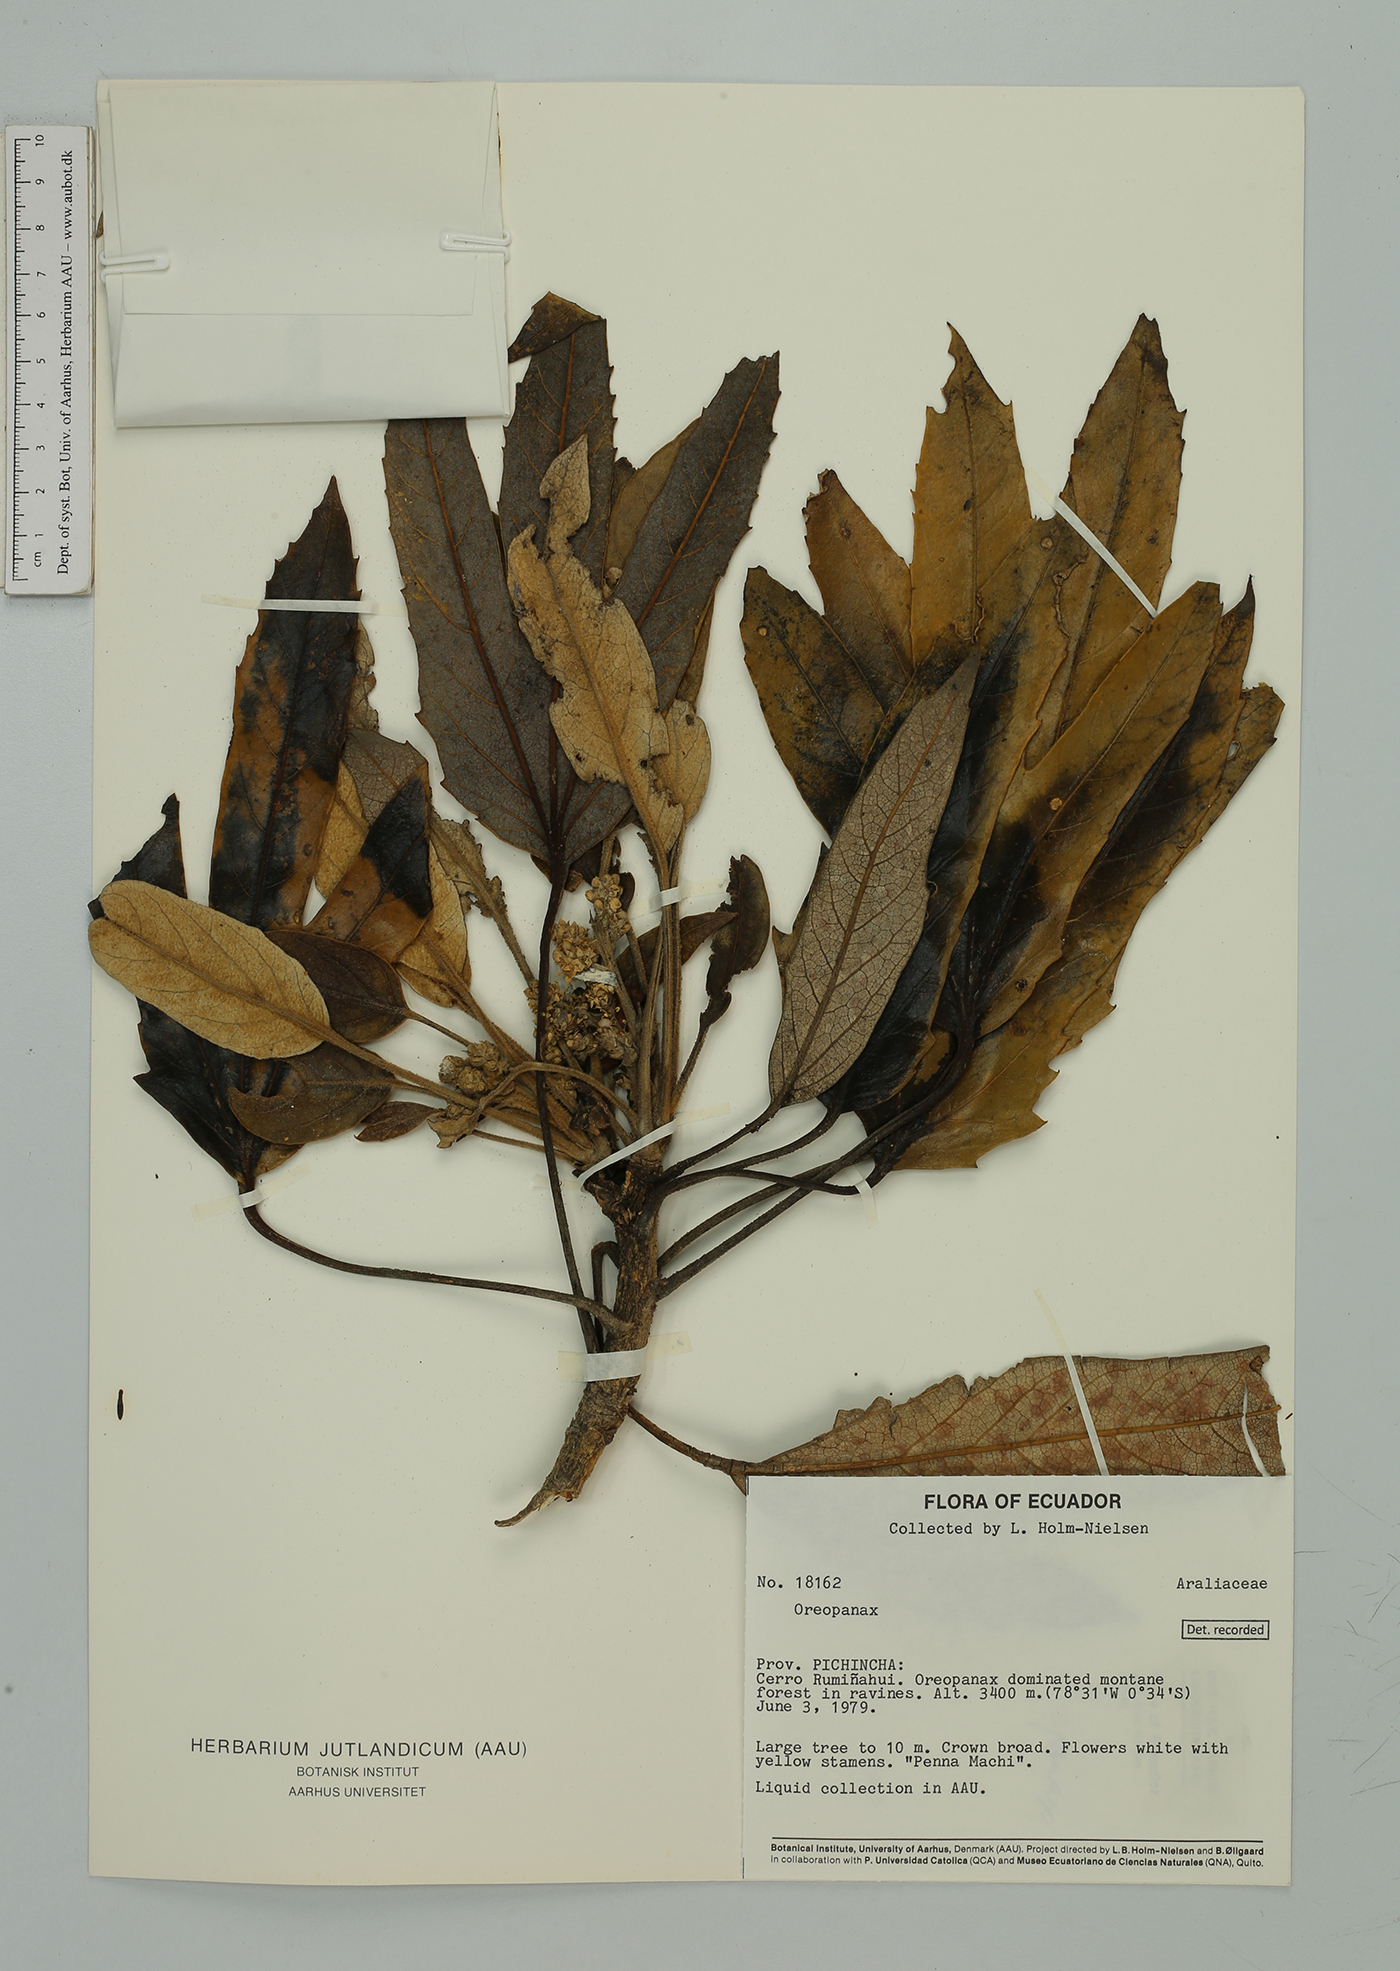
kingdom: Plantae
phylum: Tracheophyta
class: Magnoliopsida
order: Apiales
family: Araliaceae
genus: Oreopanax
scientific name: Oreopanax
